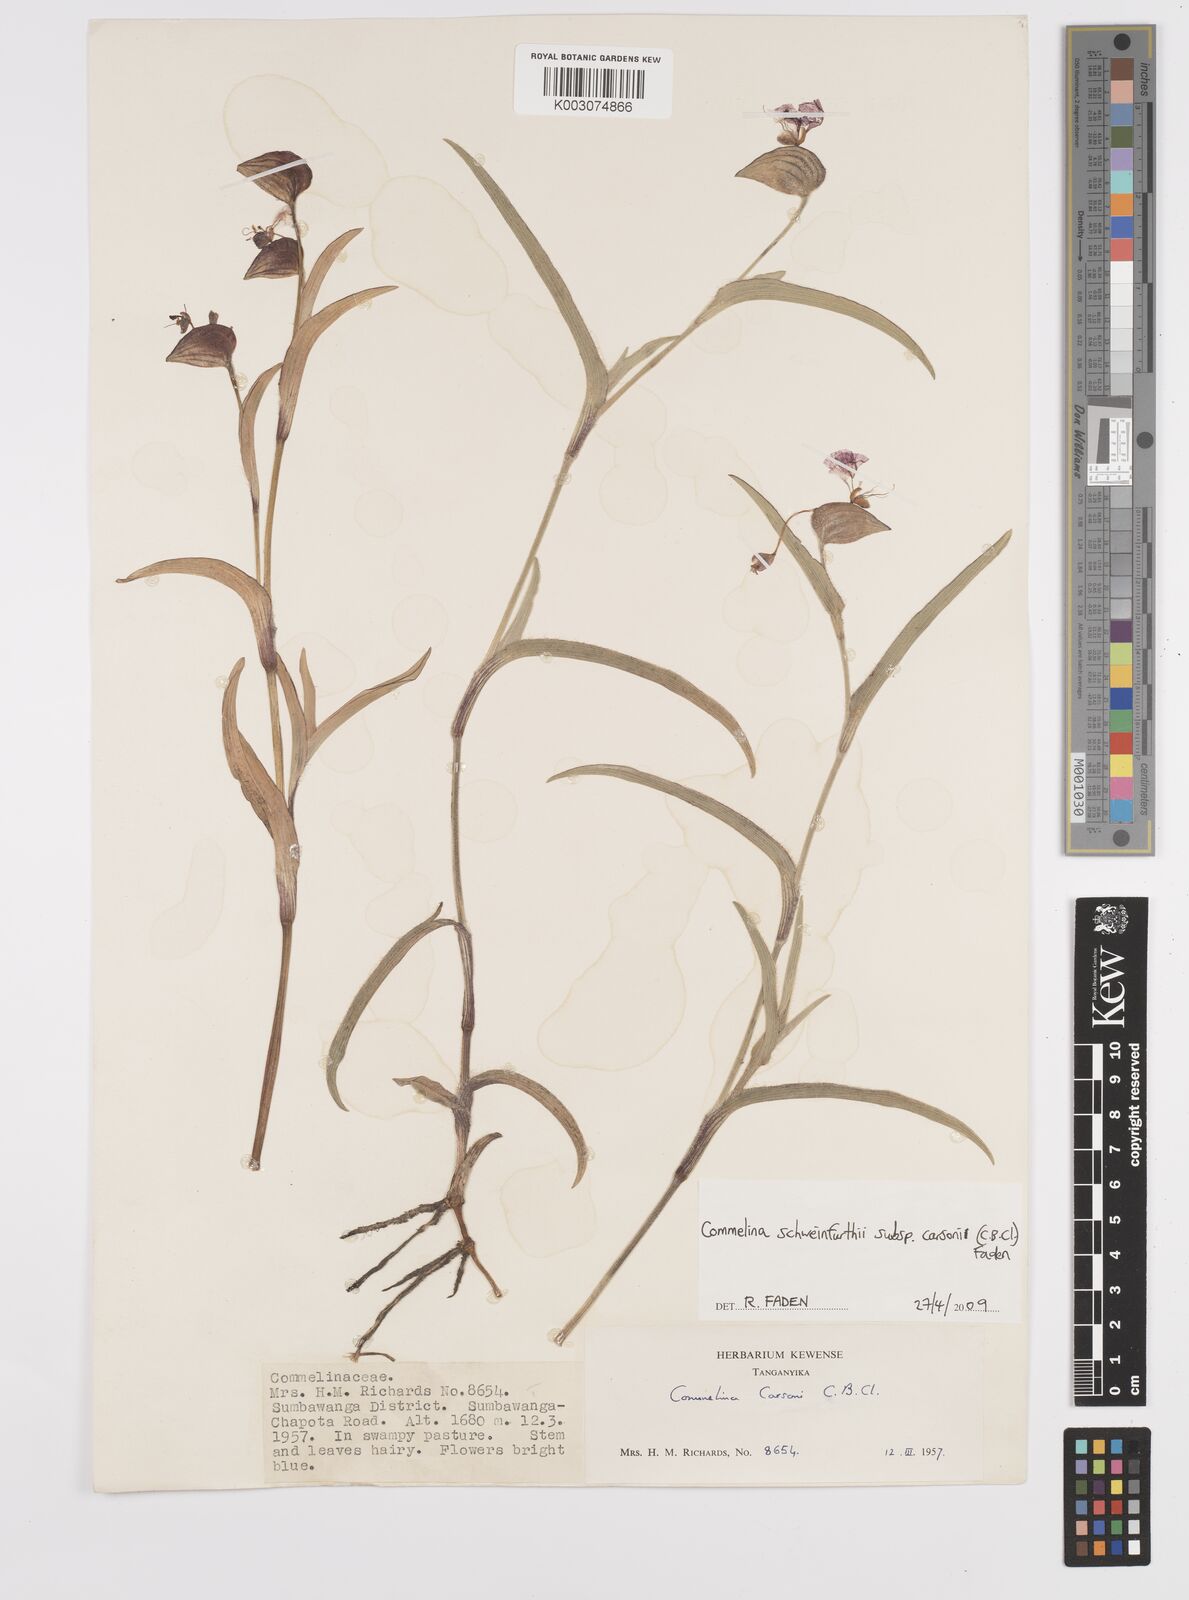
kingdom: Plantae
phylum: Tracheophyta
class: Liliopsida
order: Commelinales
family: Commelinaceae
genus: Commelina
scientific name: Commelina schweinfurthii
